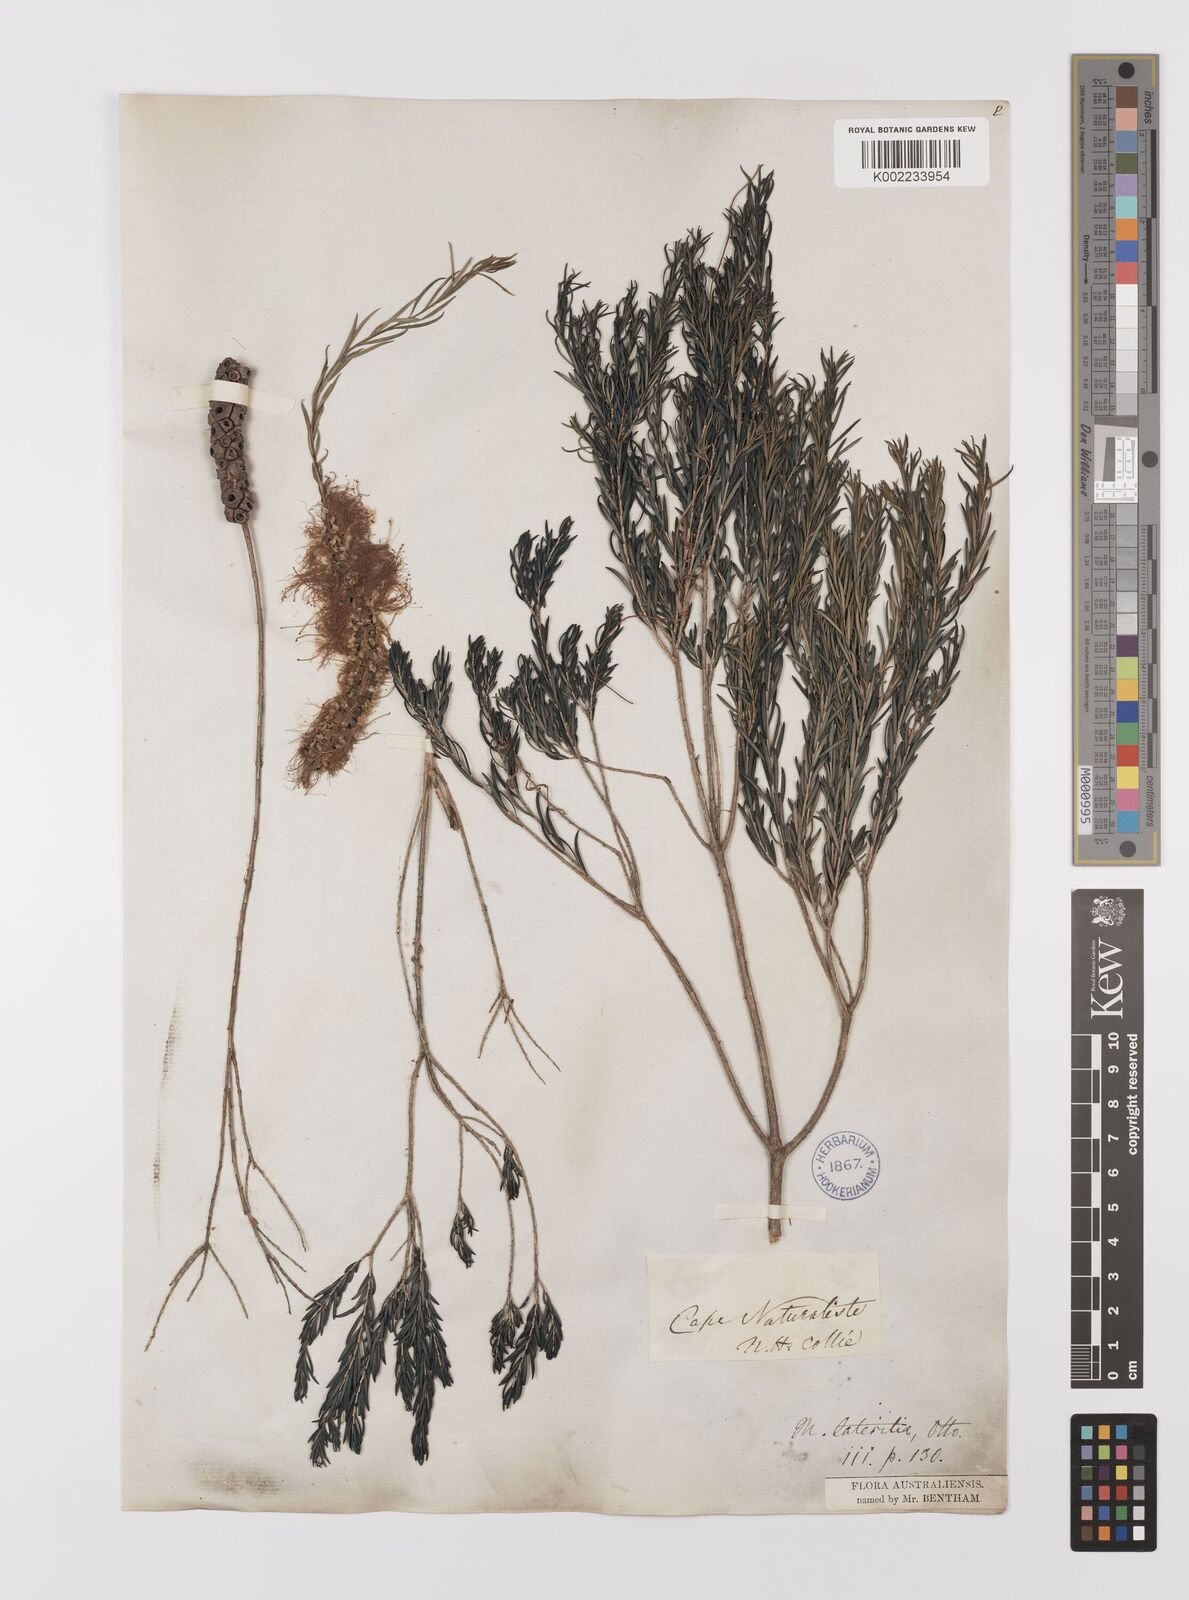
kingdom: Plantae
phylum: Tracheophyta
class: Magnoliopsida
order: Myrtales
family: Myrtaceae
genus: Melaleuca
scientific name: Melaleuca lateritia
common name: Robin red-breast
